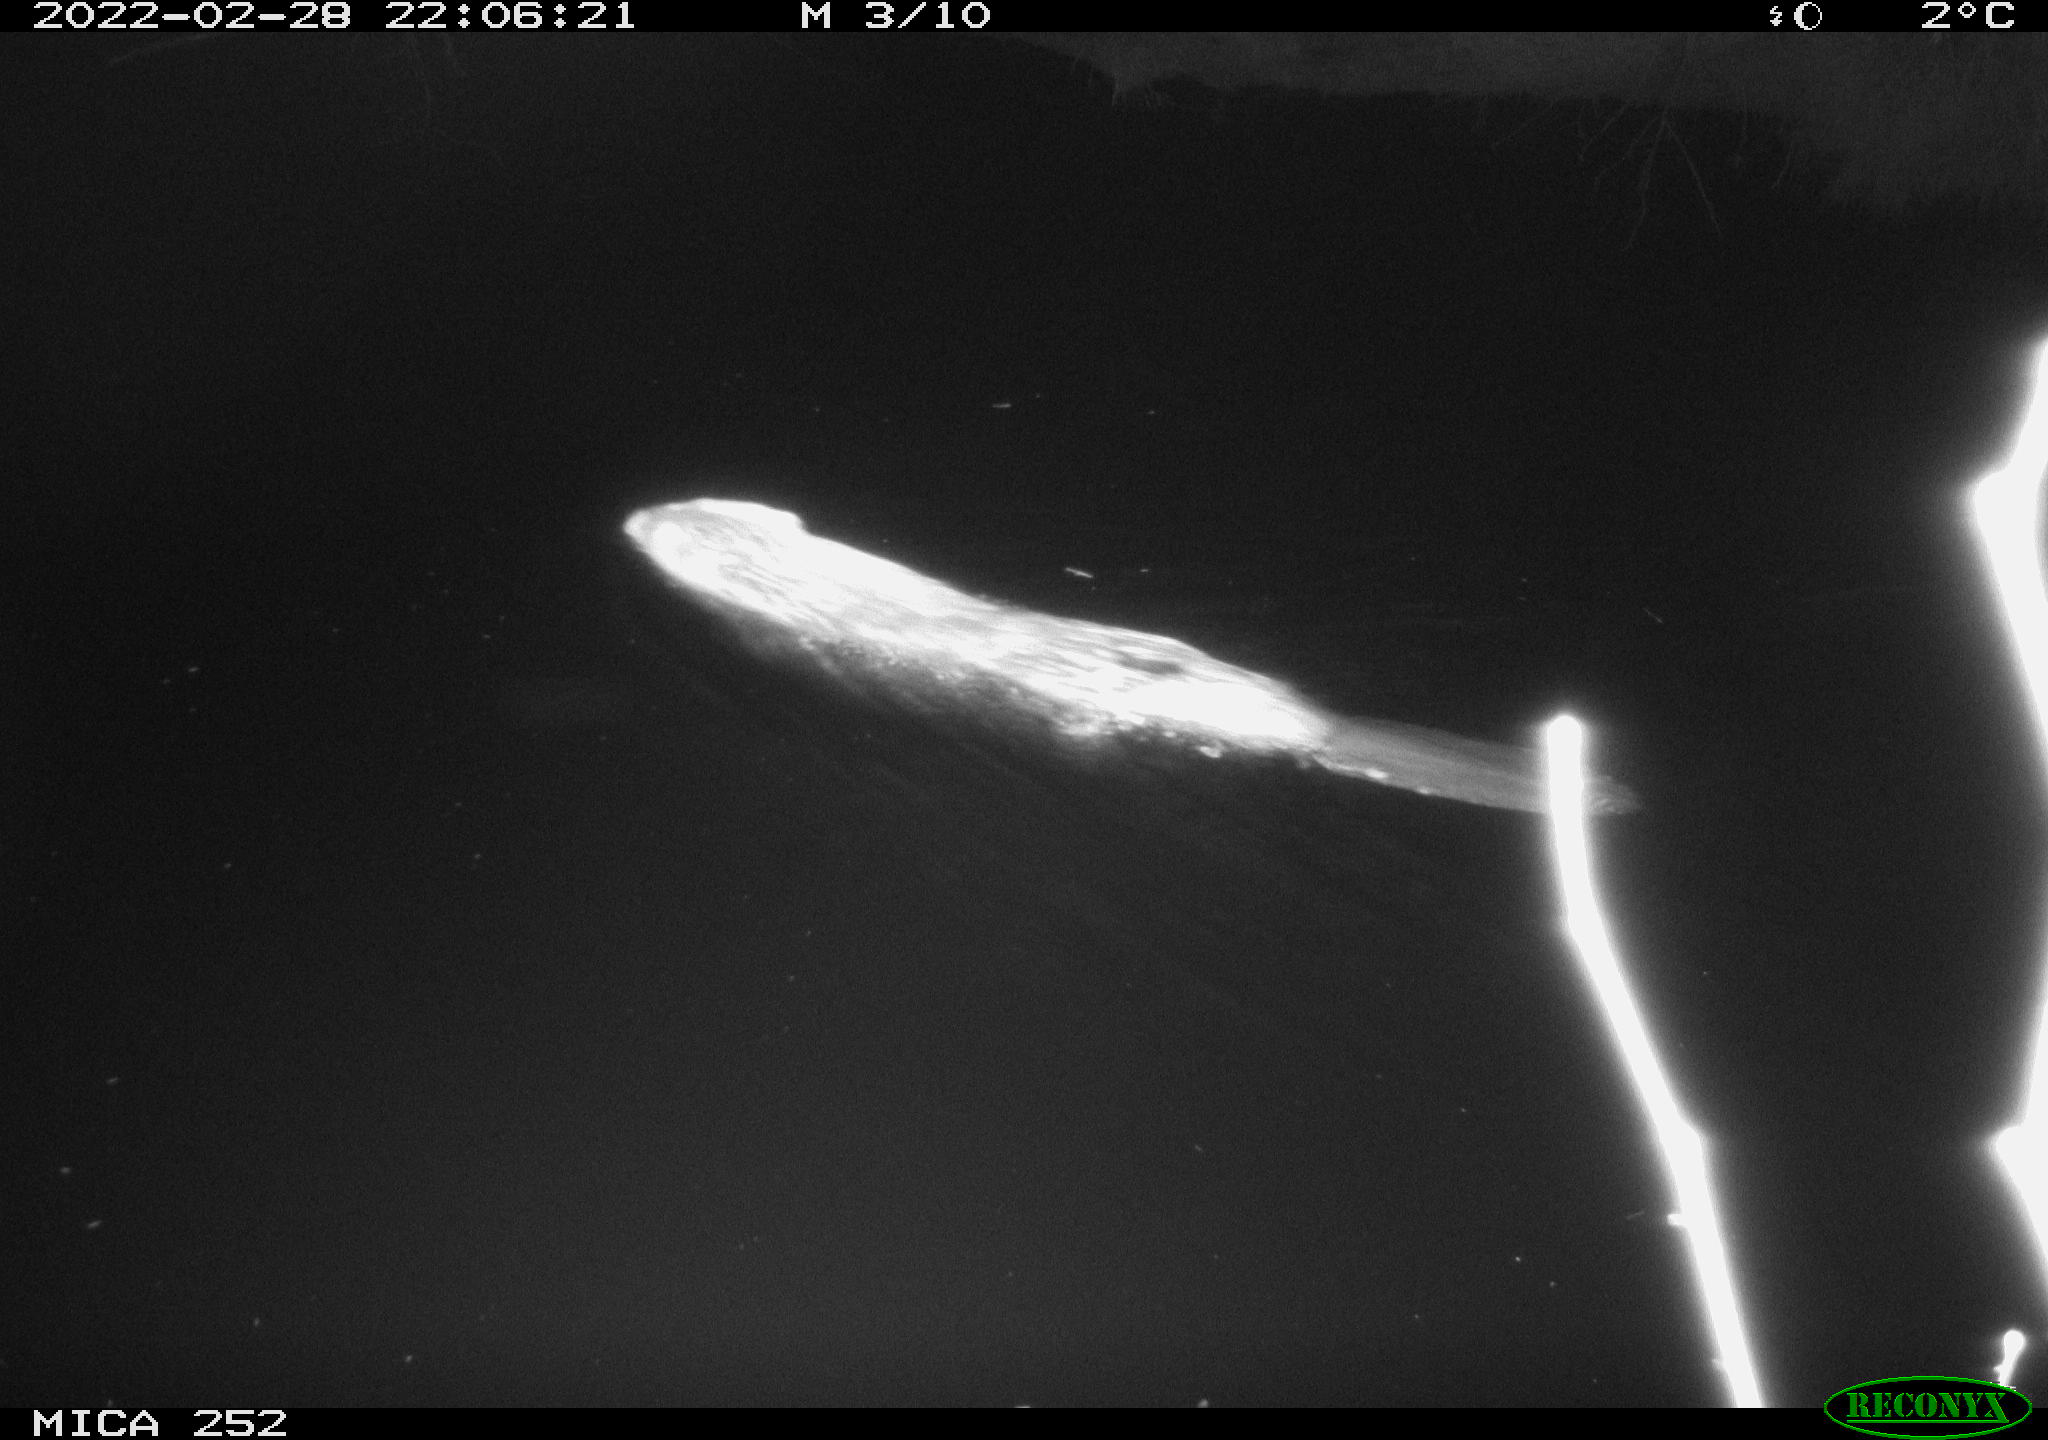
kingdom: Animalia
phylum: Chordata
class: Mammalia
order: Rodentia
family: Castoridae
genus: Castor
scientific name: Castor fiber
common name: Eurasian beaver
